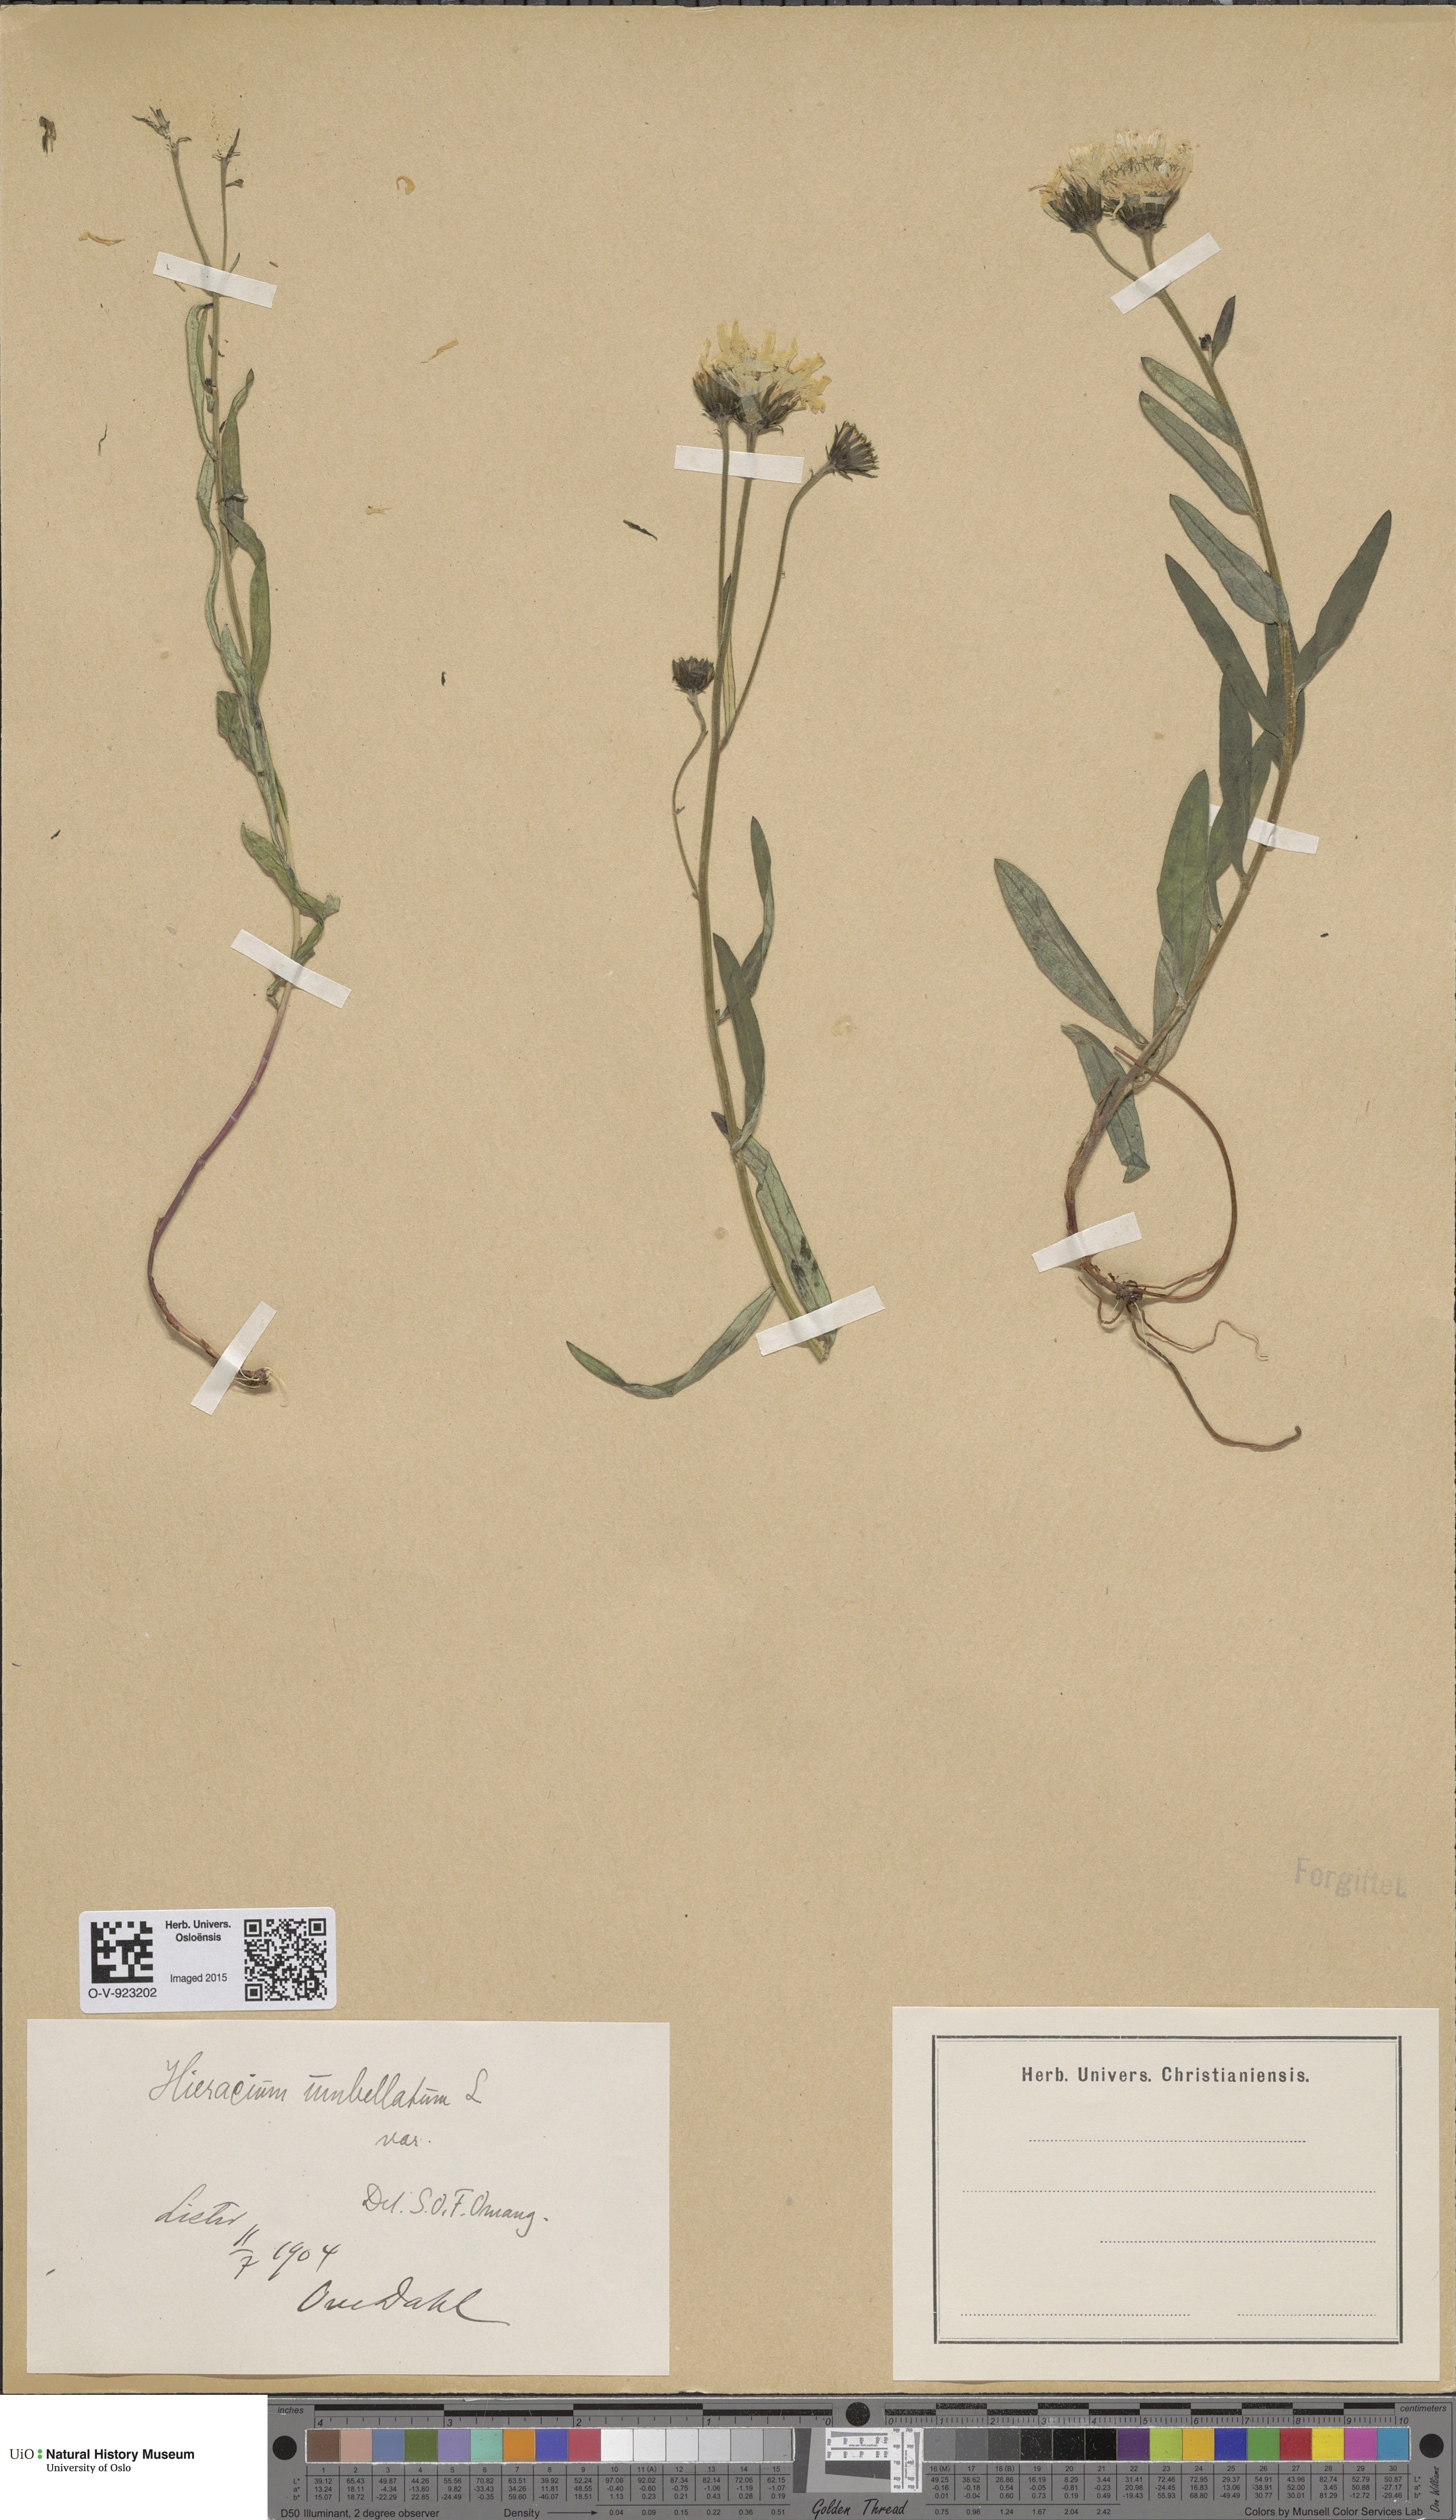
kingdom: Plantae
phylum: Tracheophyta
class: Magnoliopsida
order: Asterales
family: Asteraceae
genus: Hieracium
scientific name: Hieracium umbellatum
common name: Northern hawkweed
